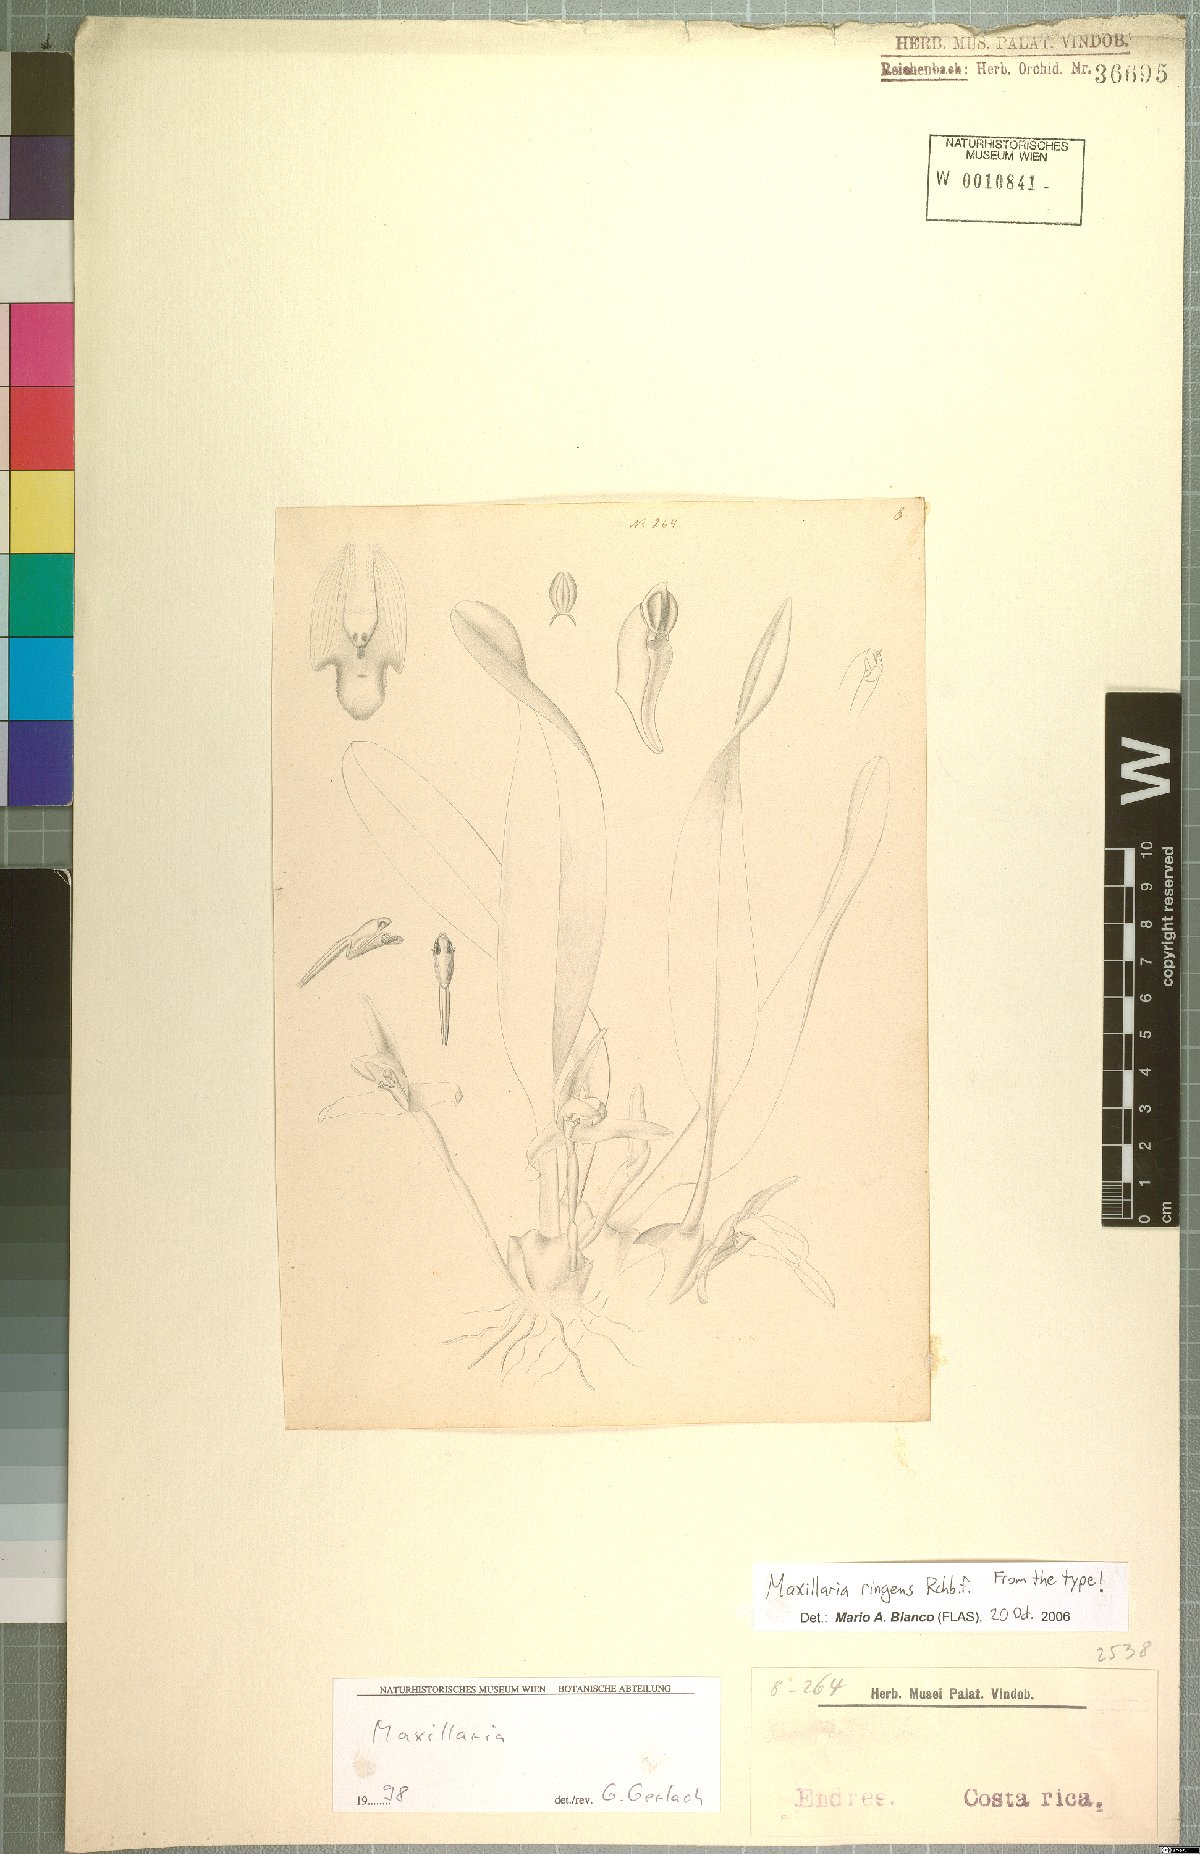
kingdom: Plantae
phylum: Tracheophyta
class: Liliopsida
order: Asparagales
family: Orchidaceae
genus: Maxillaria
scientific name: Maxillaria ringens
